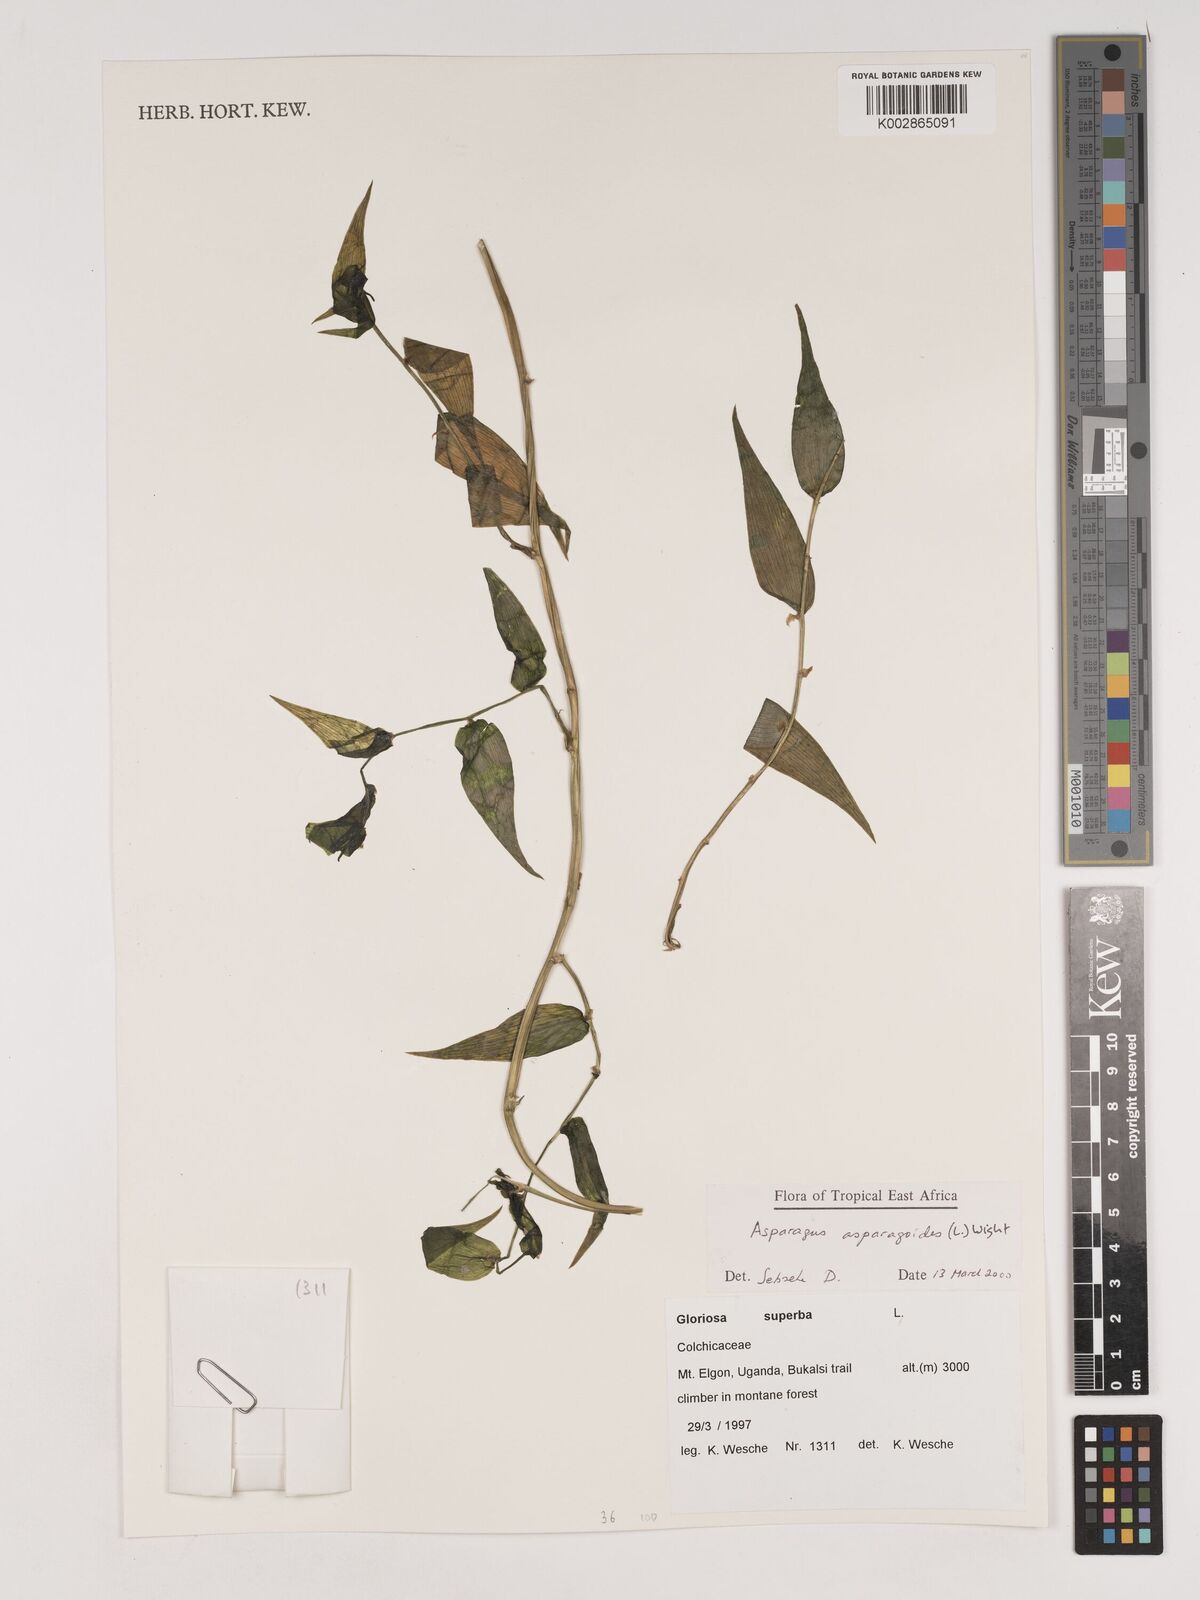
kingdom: Plantae
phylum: Tracheophyta
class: Liliopsida
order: Asparagales
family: Asparagaceae
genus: Asparagus
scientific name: Asparagus asparagoides
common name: African asparagus fern
